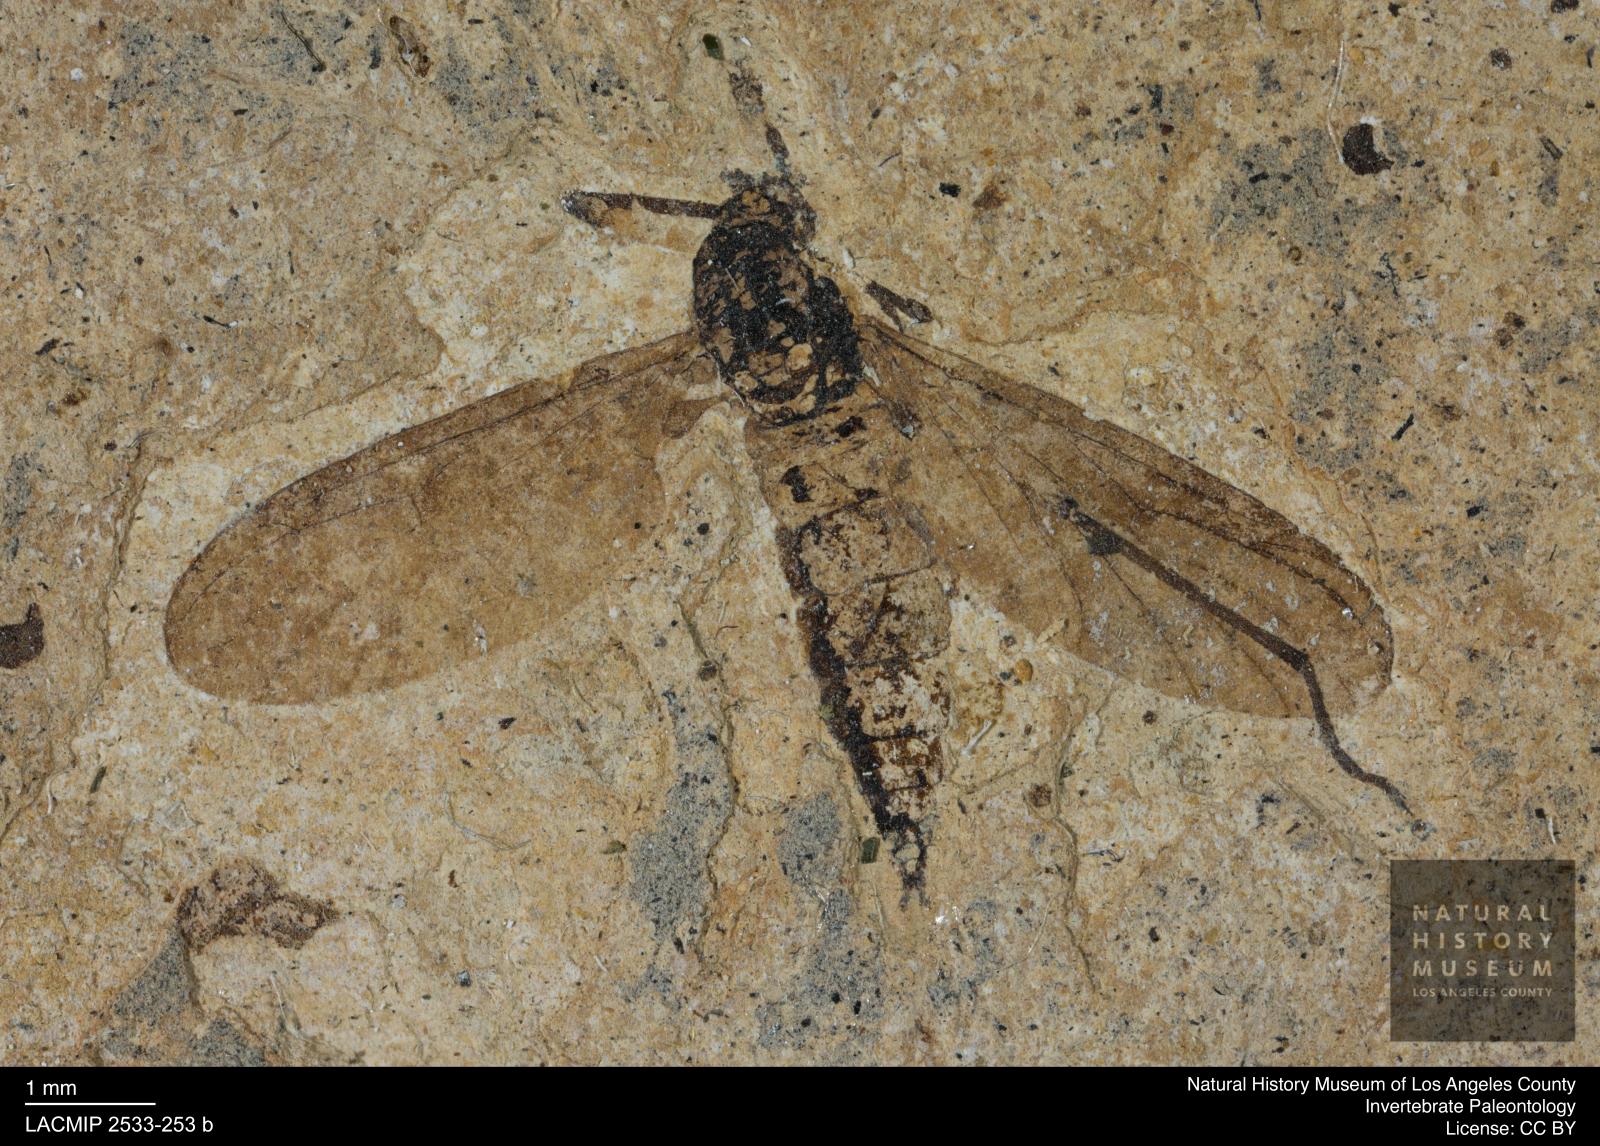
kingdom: Animalia
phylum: Arthropoda
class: Insecta
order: Diptera
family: Hesperinidae
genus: Hesperinus
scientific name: Hesperinus heeri
